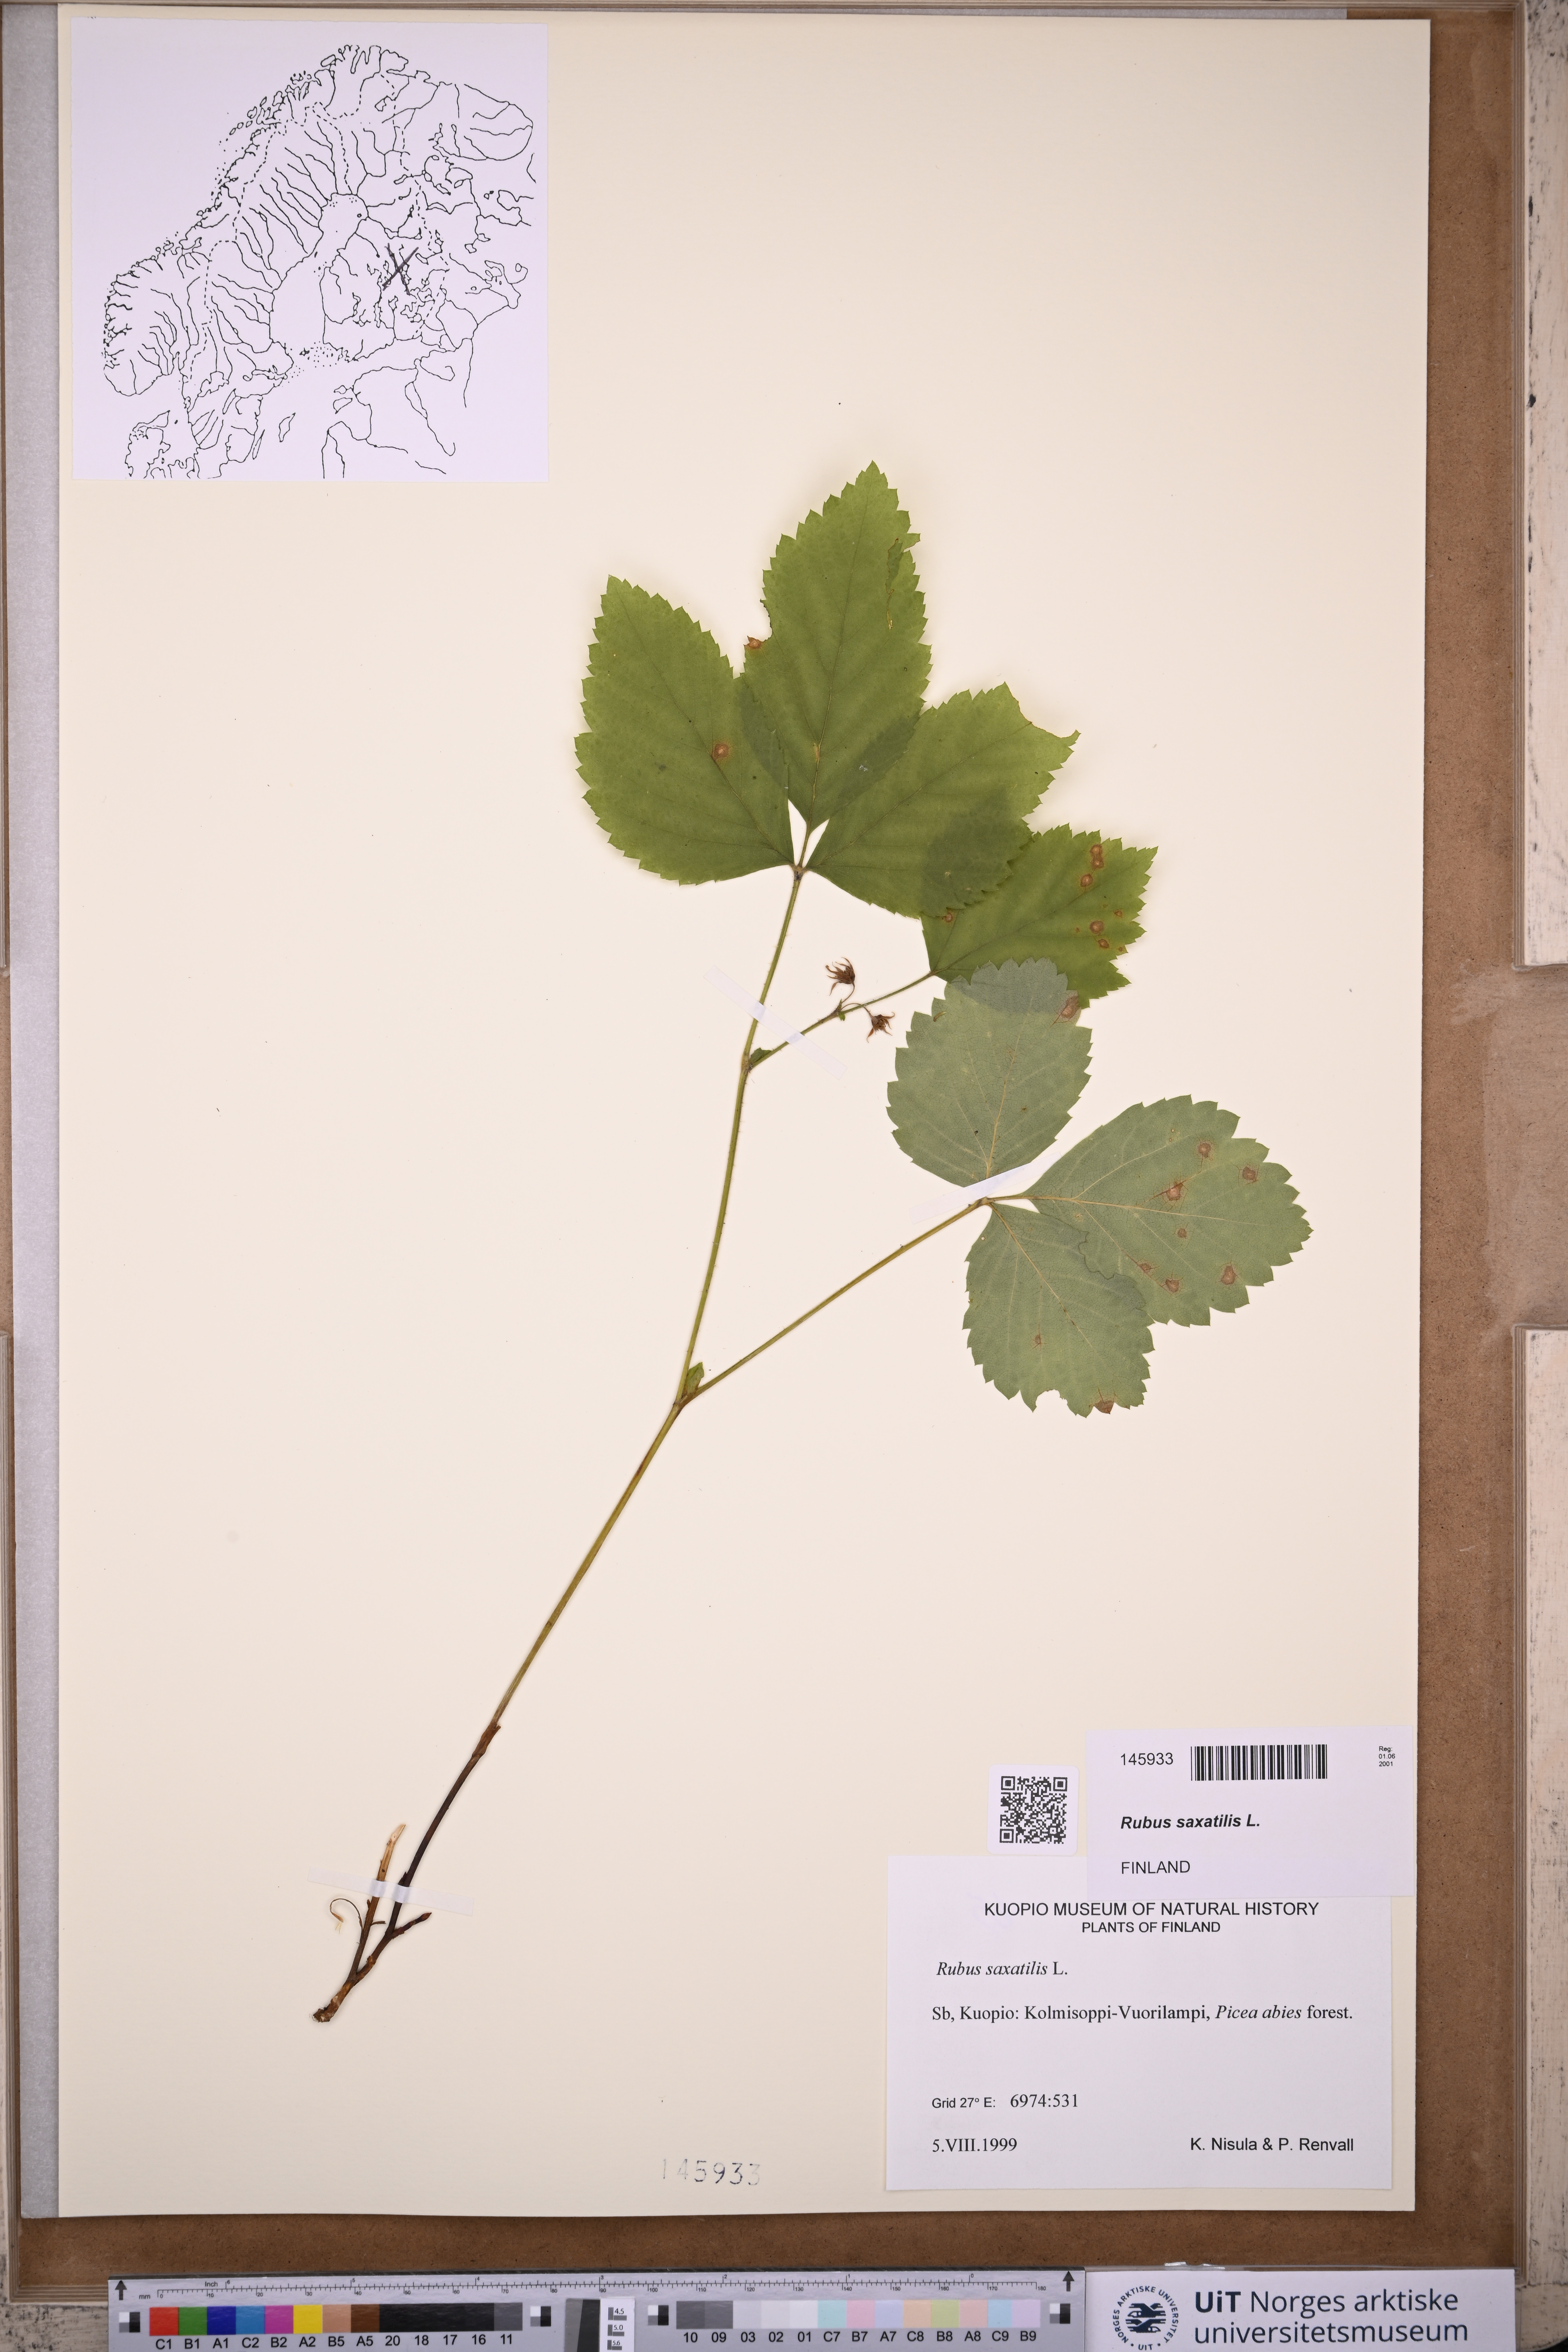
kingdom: Plantae
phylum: Tracheophyta
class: Magnoliopsida
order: Rosales
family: Rosaceae
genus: Rubus
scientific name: Rubus saxatilis
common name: Stone bramble
